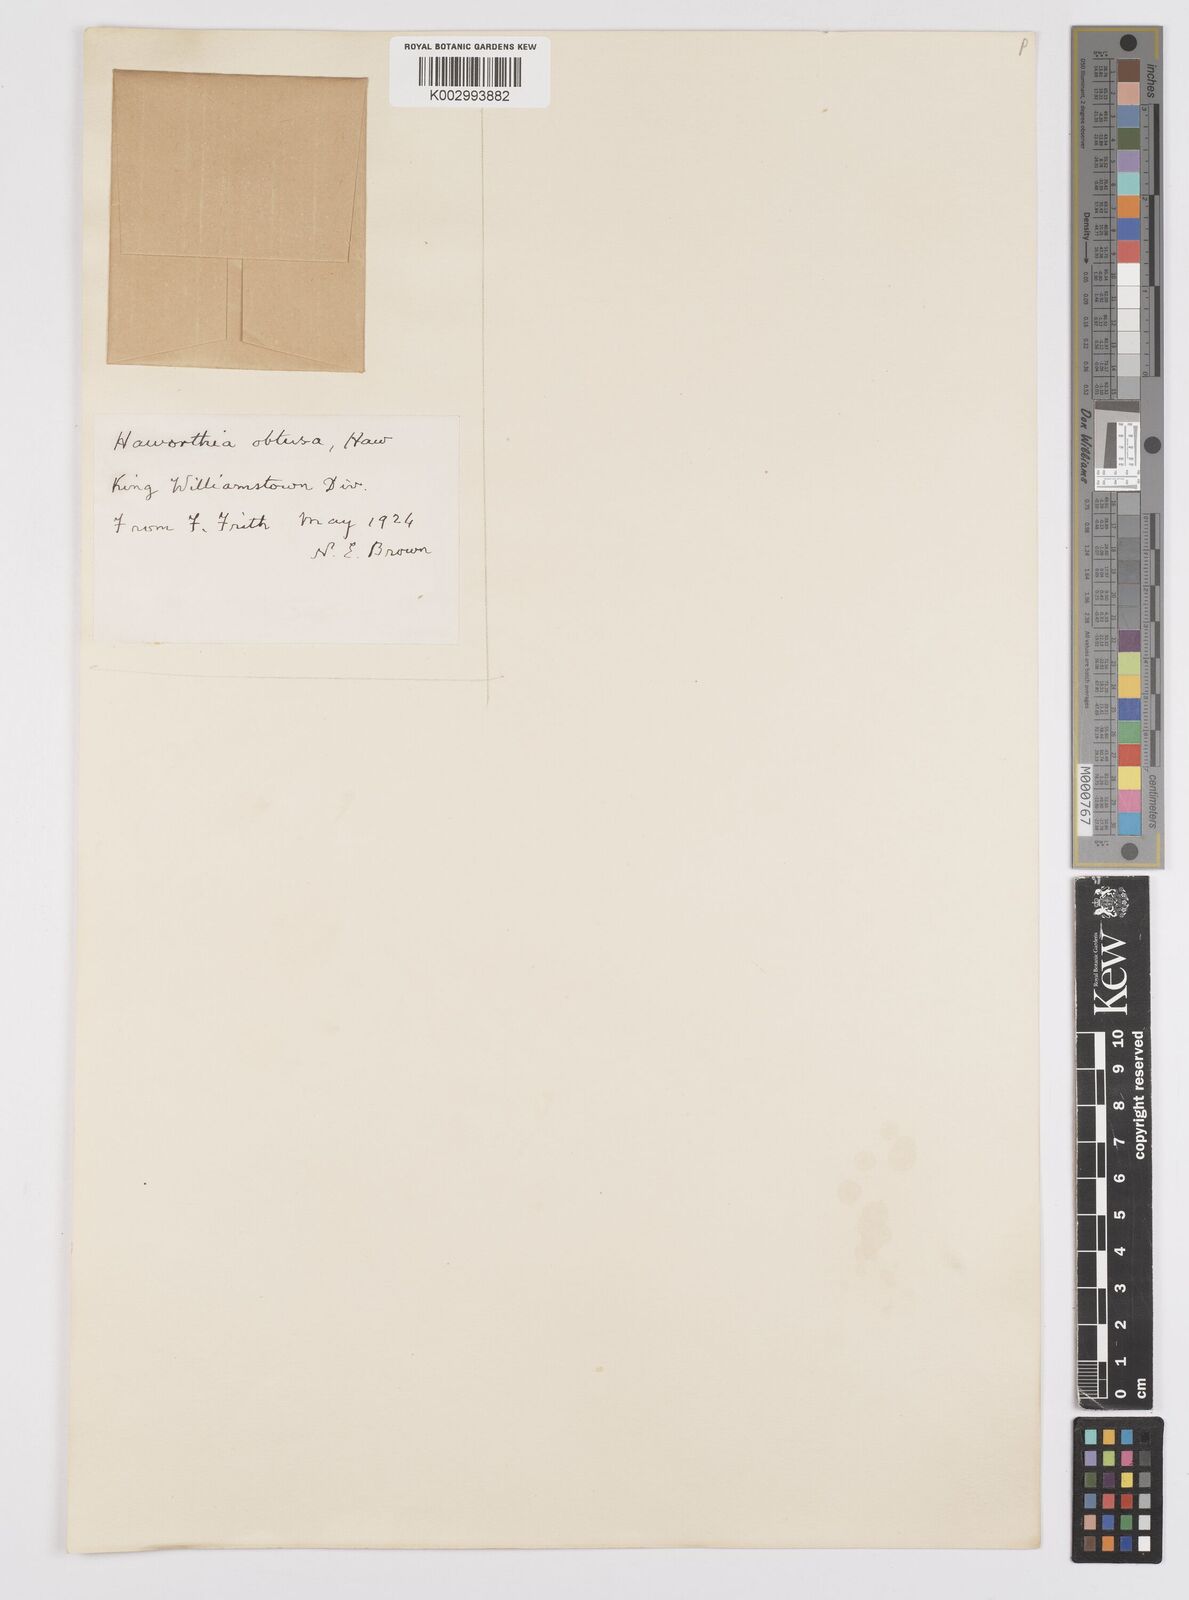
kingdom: Plantae
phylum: Tracheophyta
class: Liliopsida
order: Asparagales
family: Asphodelaceae
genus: Haworthia
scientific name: Haworthia cymbiformis
